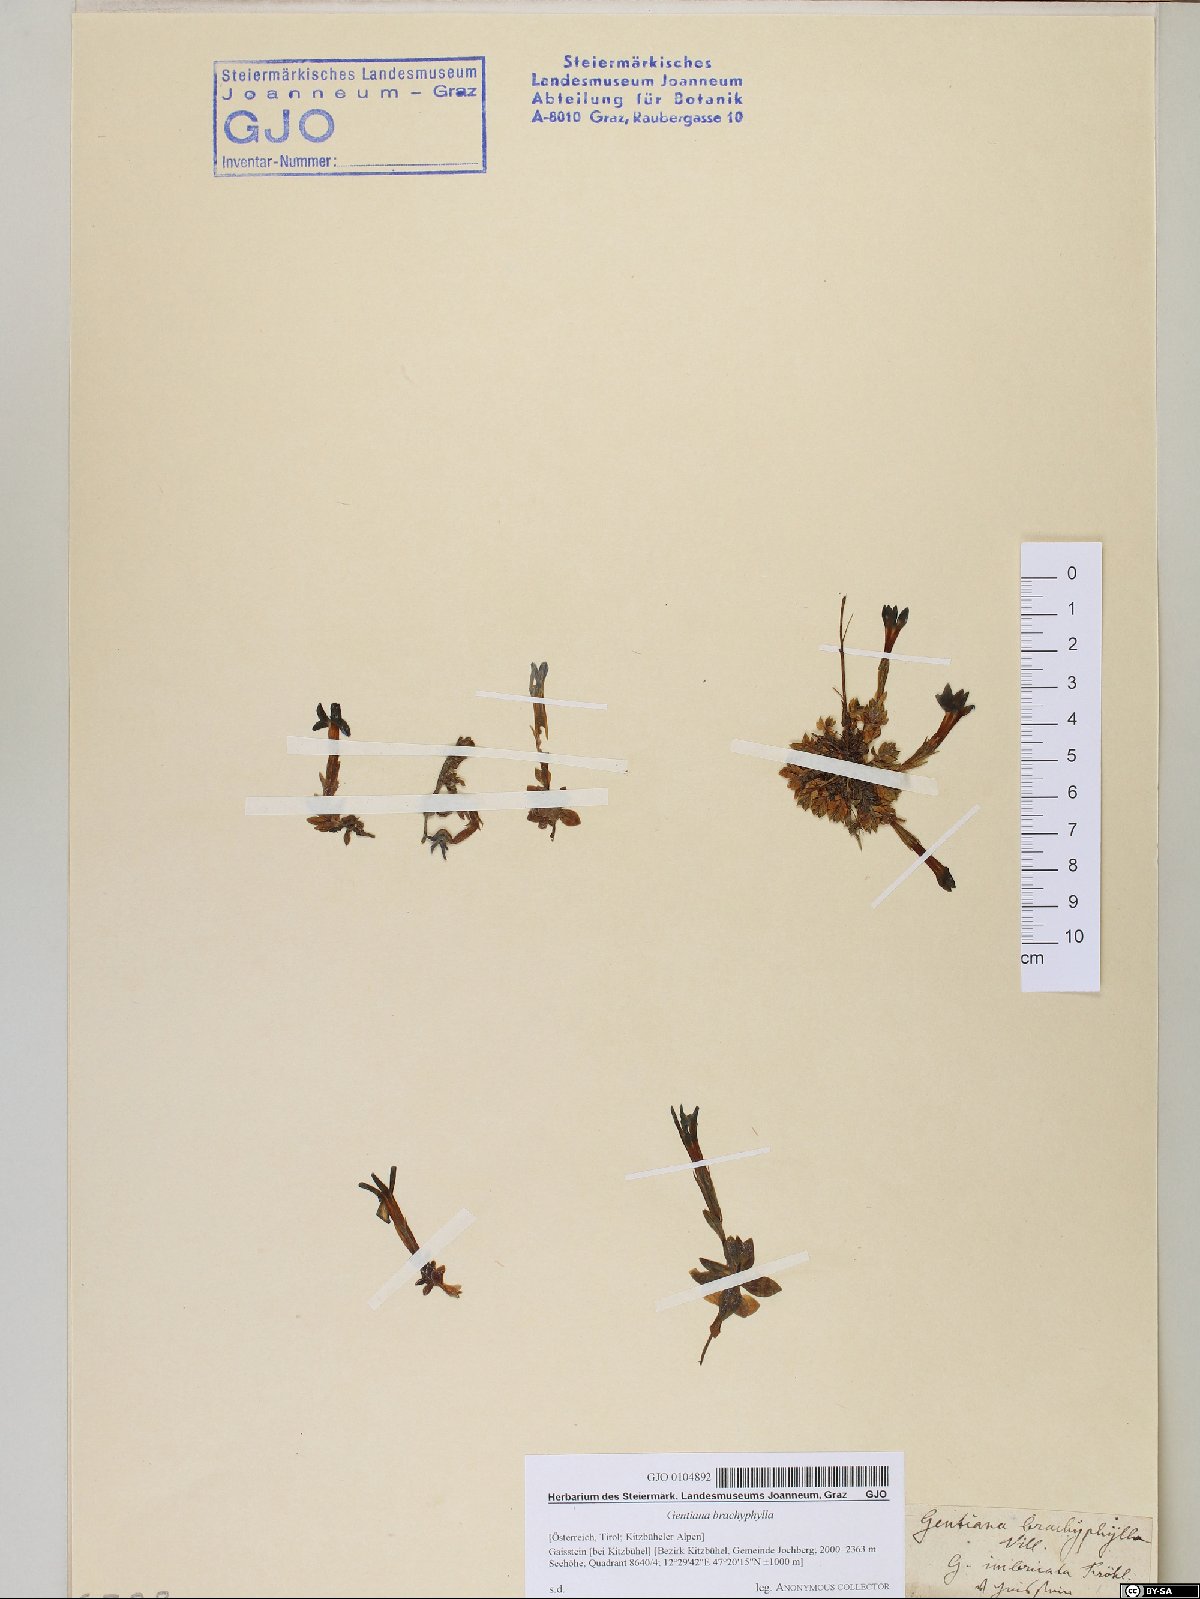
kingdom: Plantae
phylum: Tracheophyta
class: Magnoliopsida
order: Gentianales
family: Gentianaceae
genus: Gentiana
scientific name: Gentiana brachyphylla
